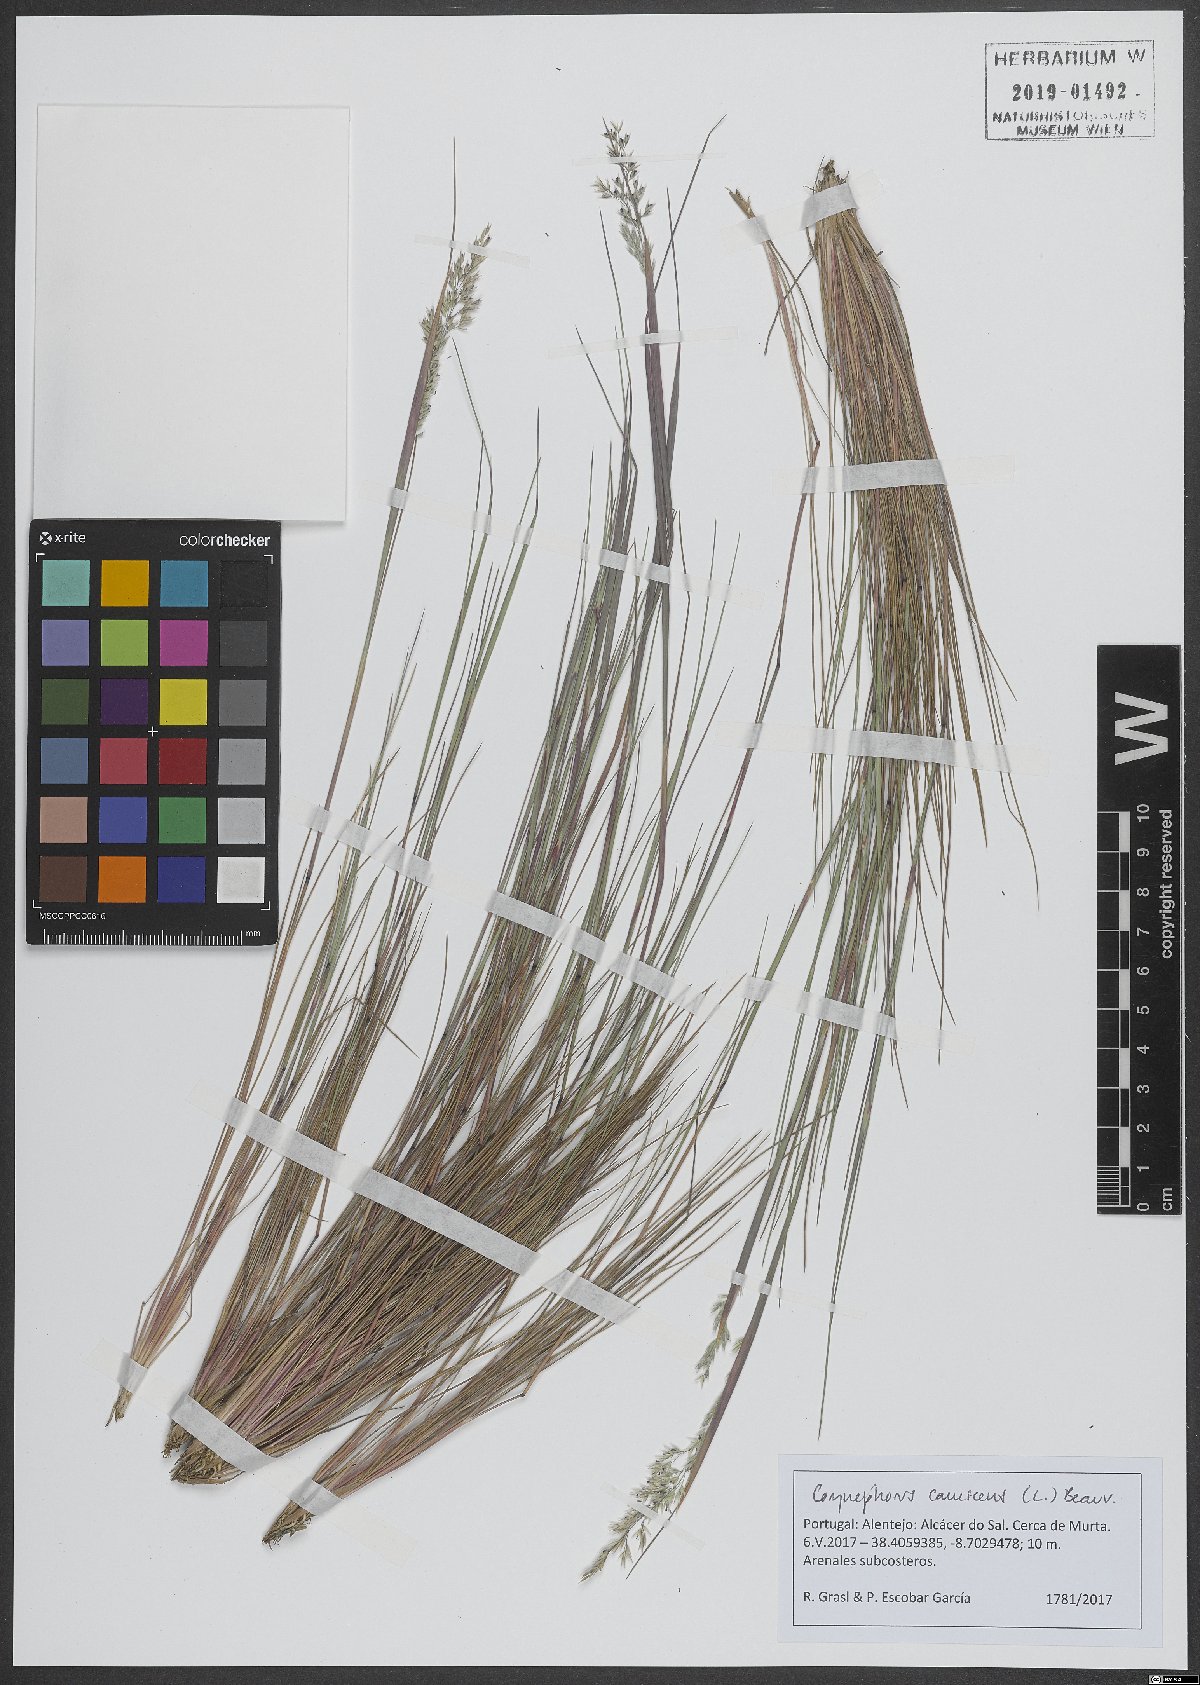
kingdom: Plantae
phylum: Tracheophyta
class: Liliopsida
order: Poales
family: Poaceae
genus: Corynephorus
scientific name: Corynephorus canescens
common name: Grey hair-grass
